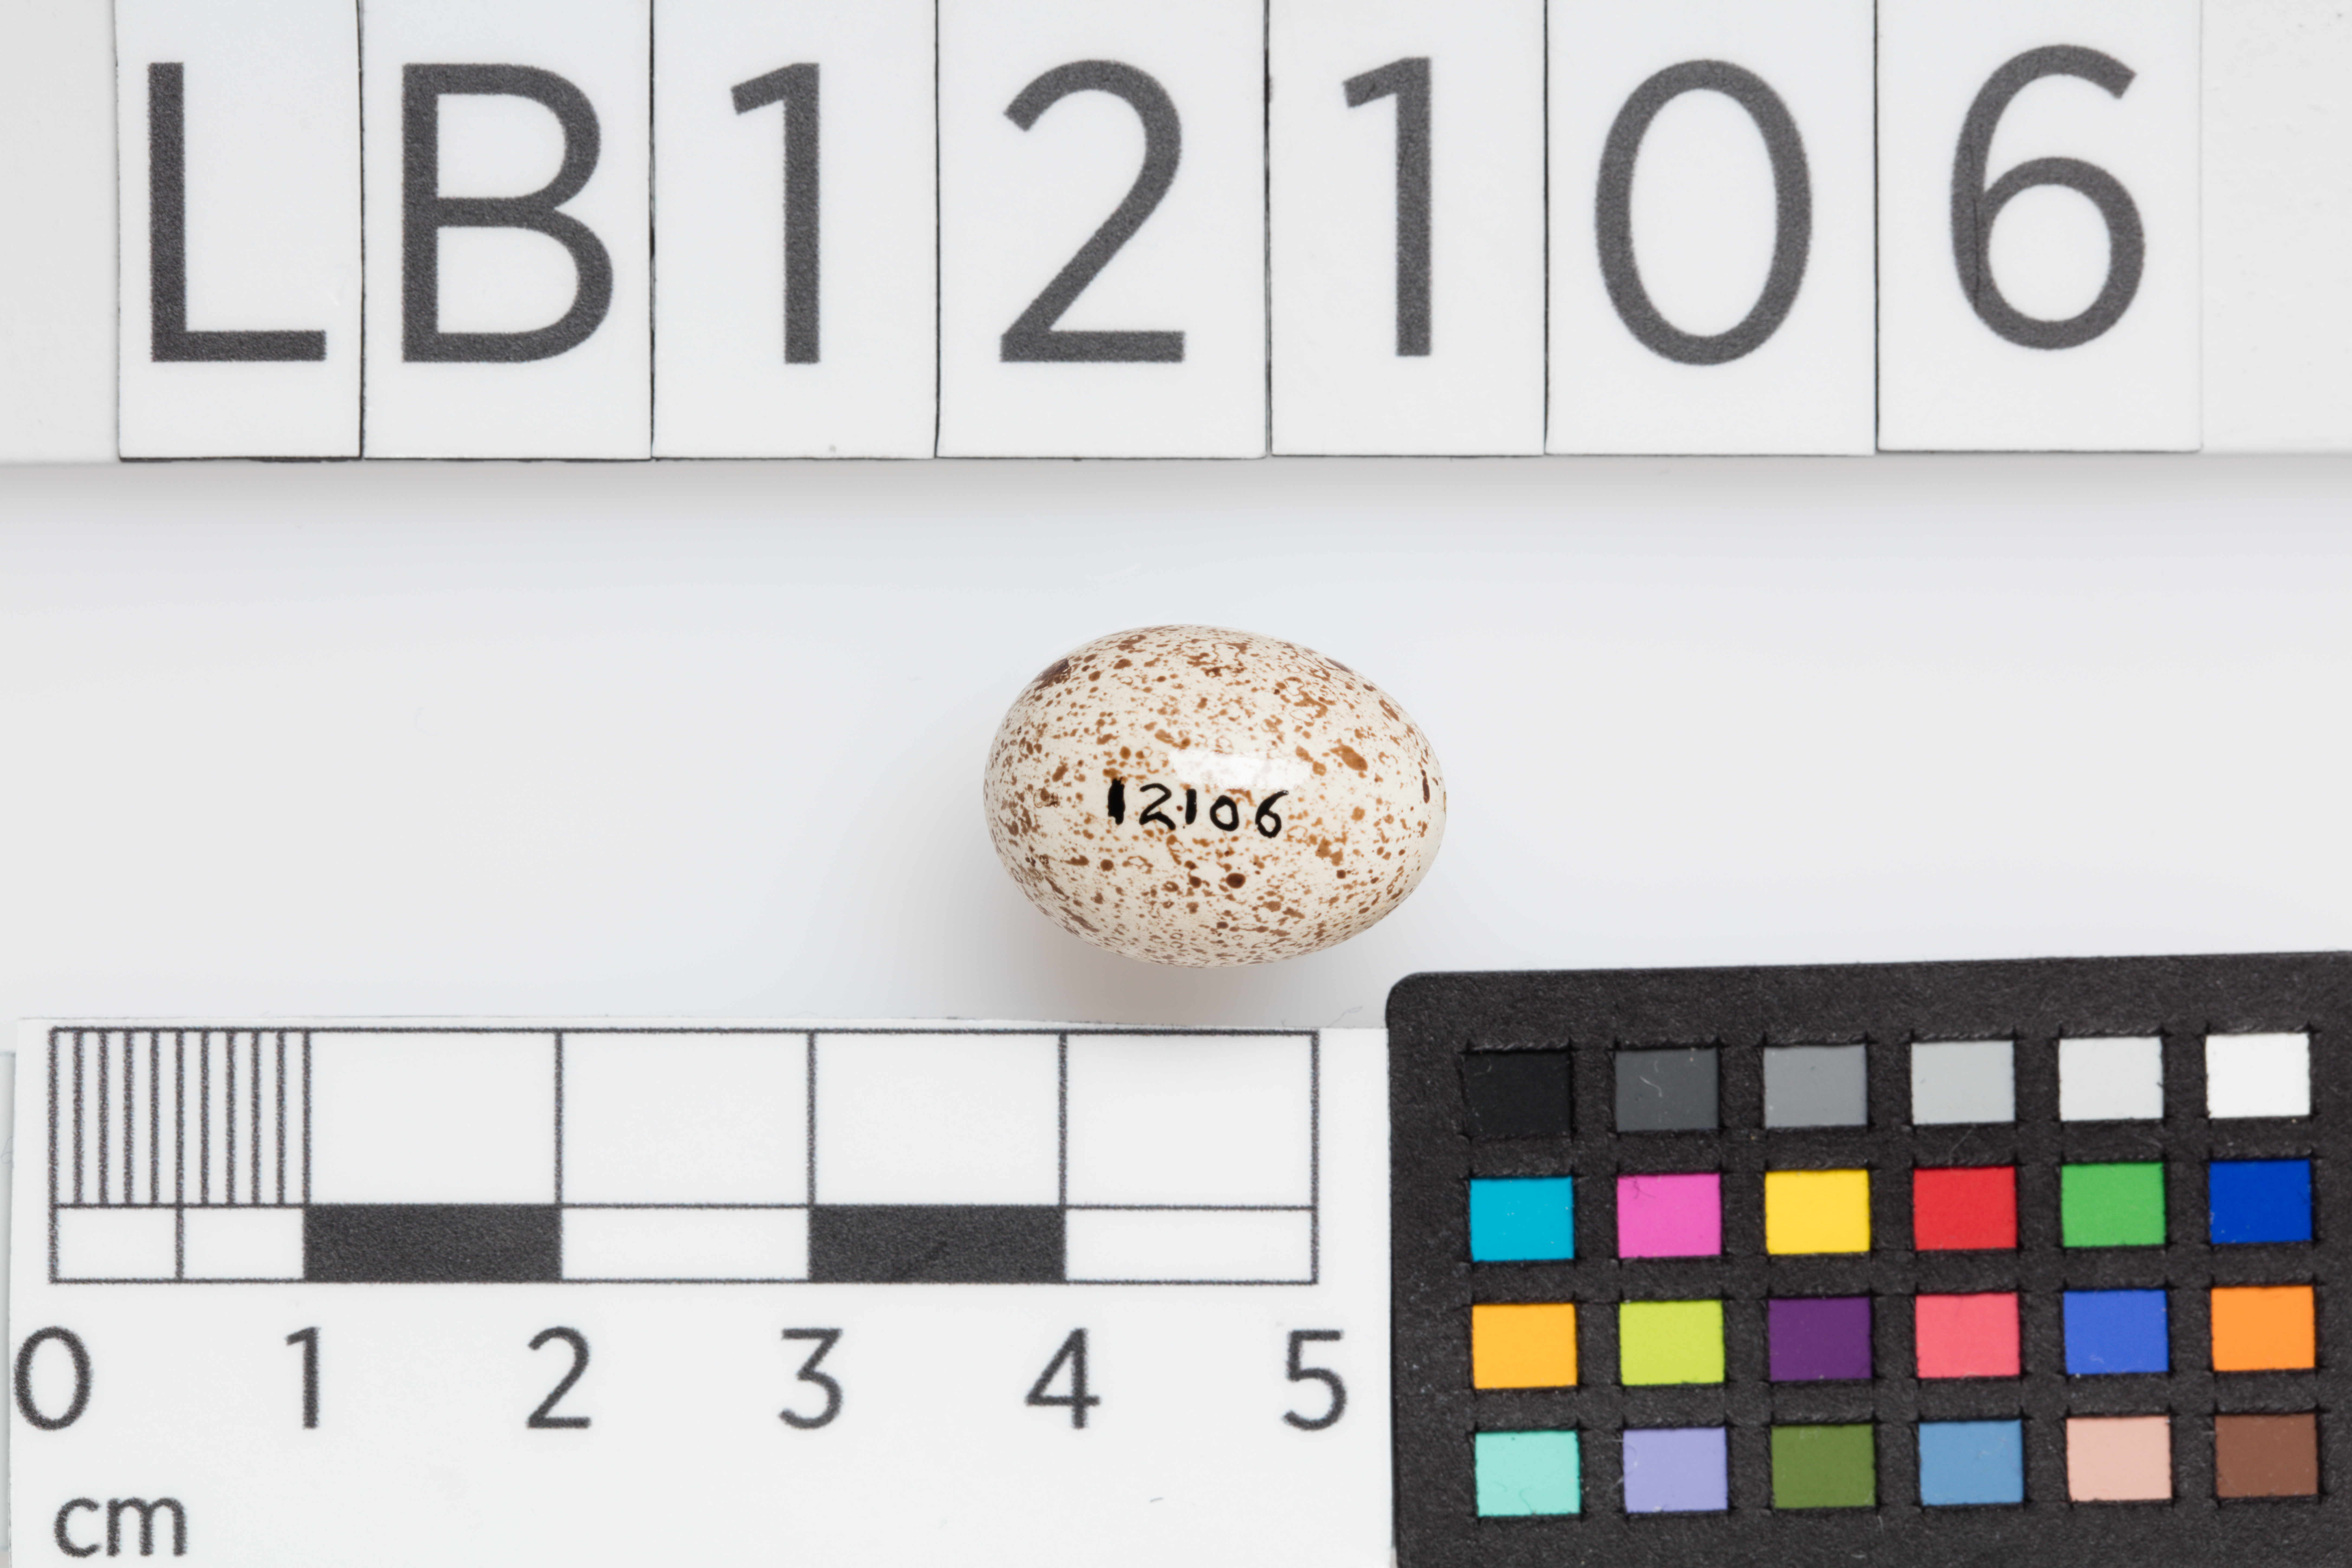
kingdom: Animalia
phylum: Chordata
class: Aves
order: Passeriformes
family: Hirundinidae
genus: Hirundo
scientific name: Hirundo neoxena
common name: Welcome swallow
